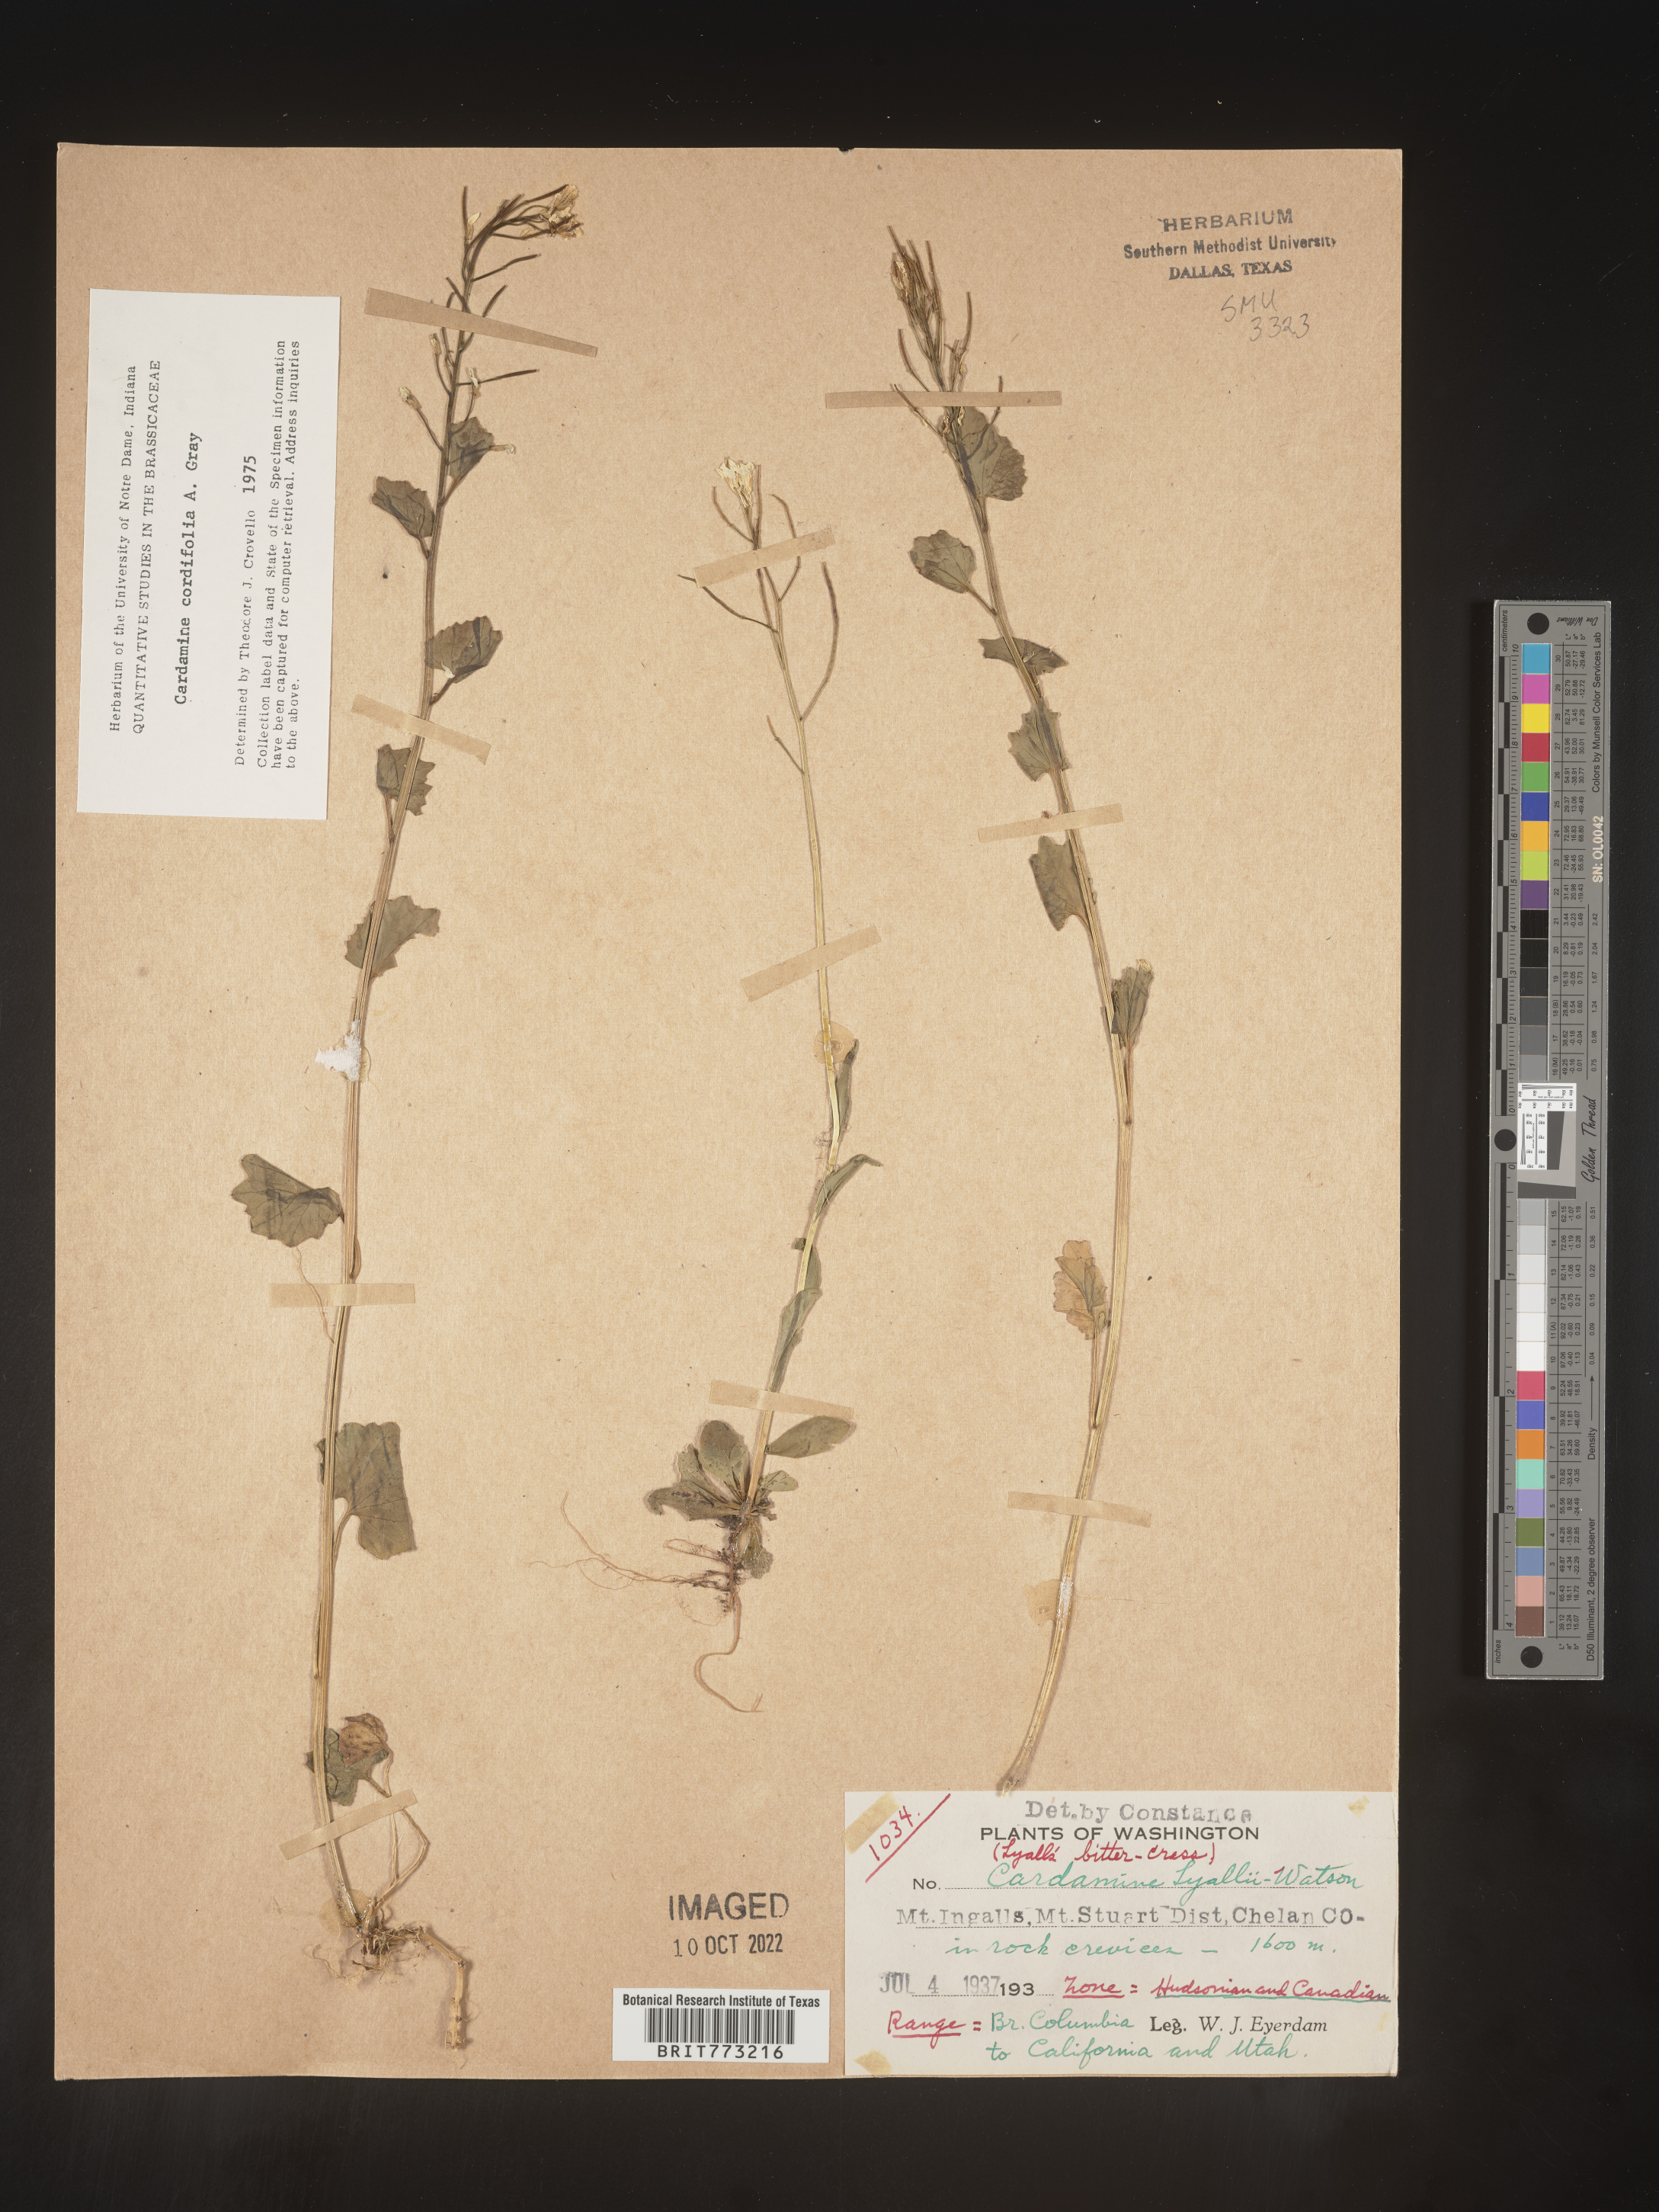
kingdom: Plantae
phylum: Tracheophyta
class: Magnoliopsida
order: Brassicales
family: Brassicaceae
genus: Cardamine
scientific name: Cardamine
